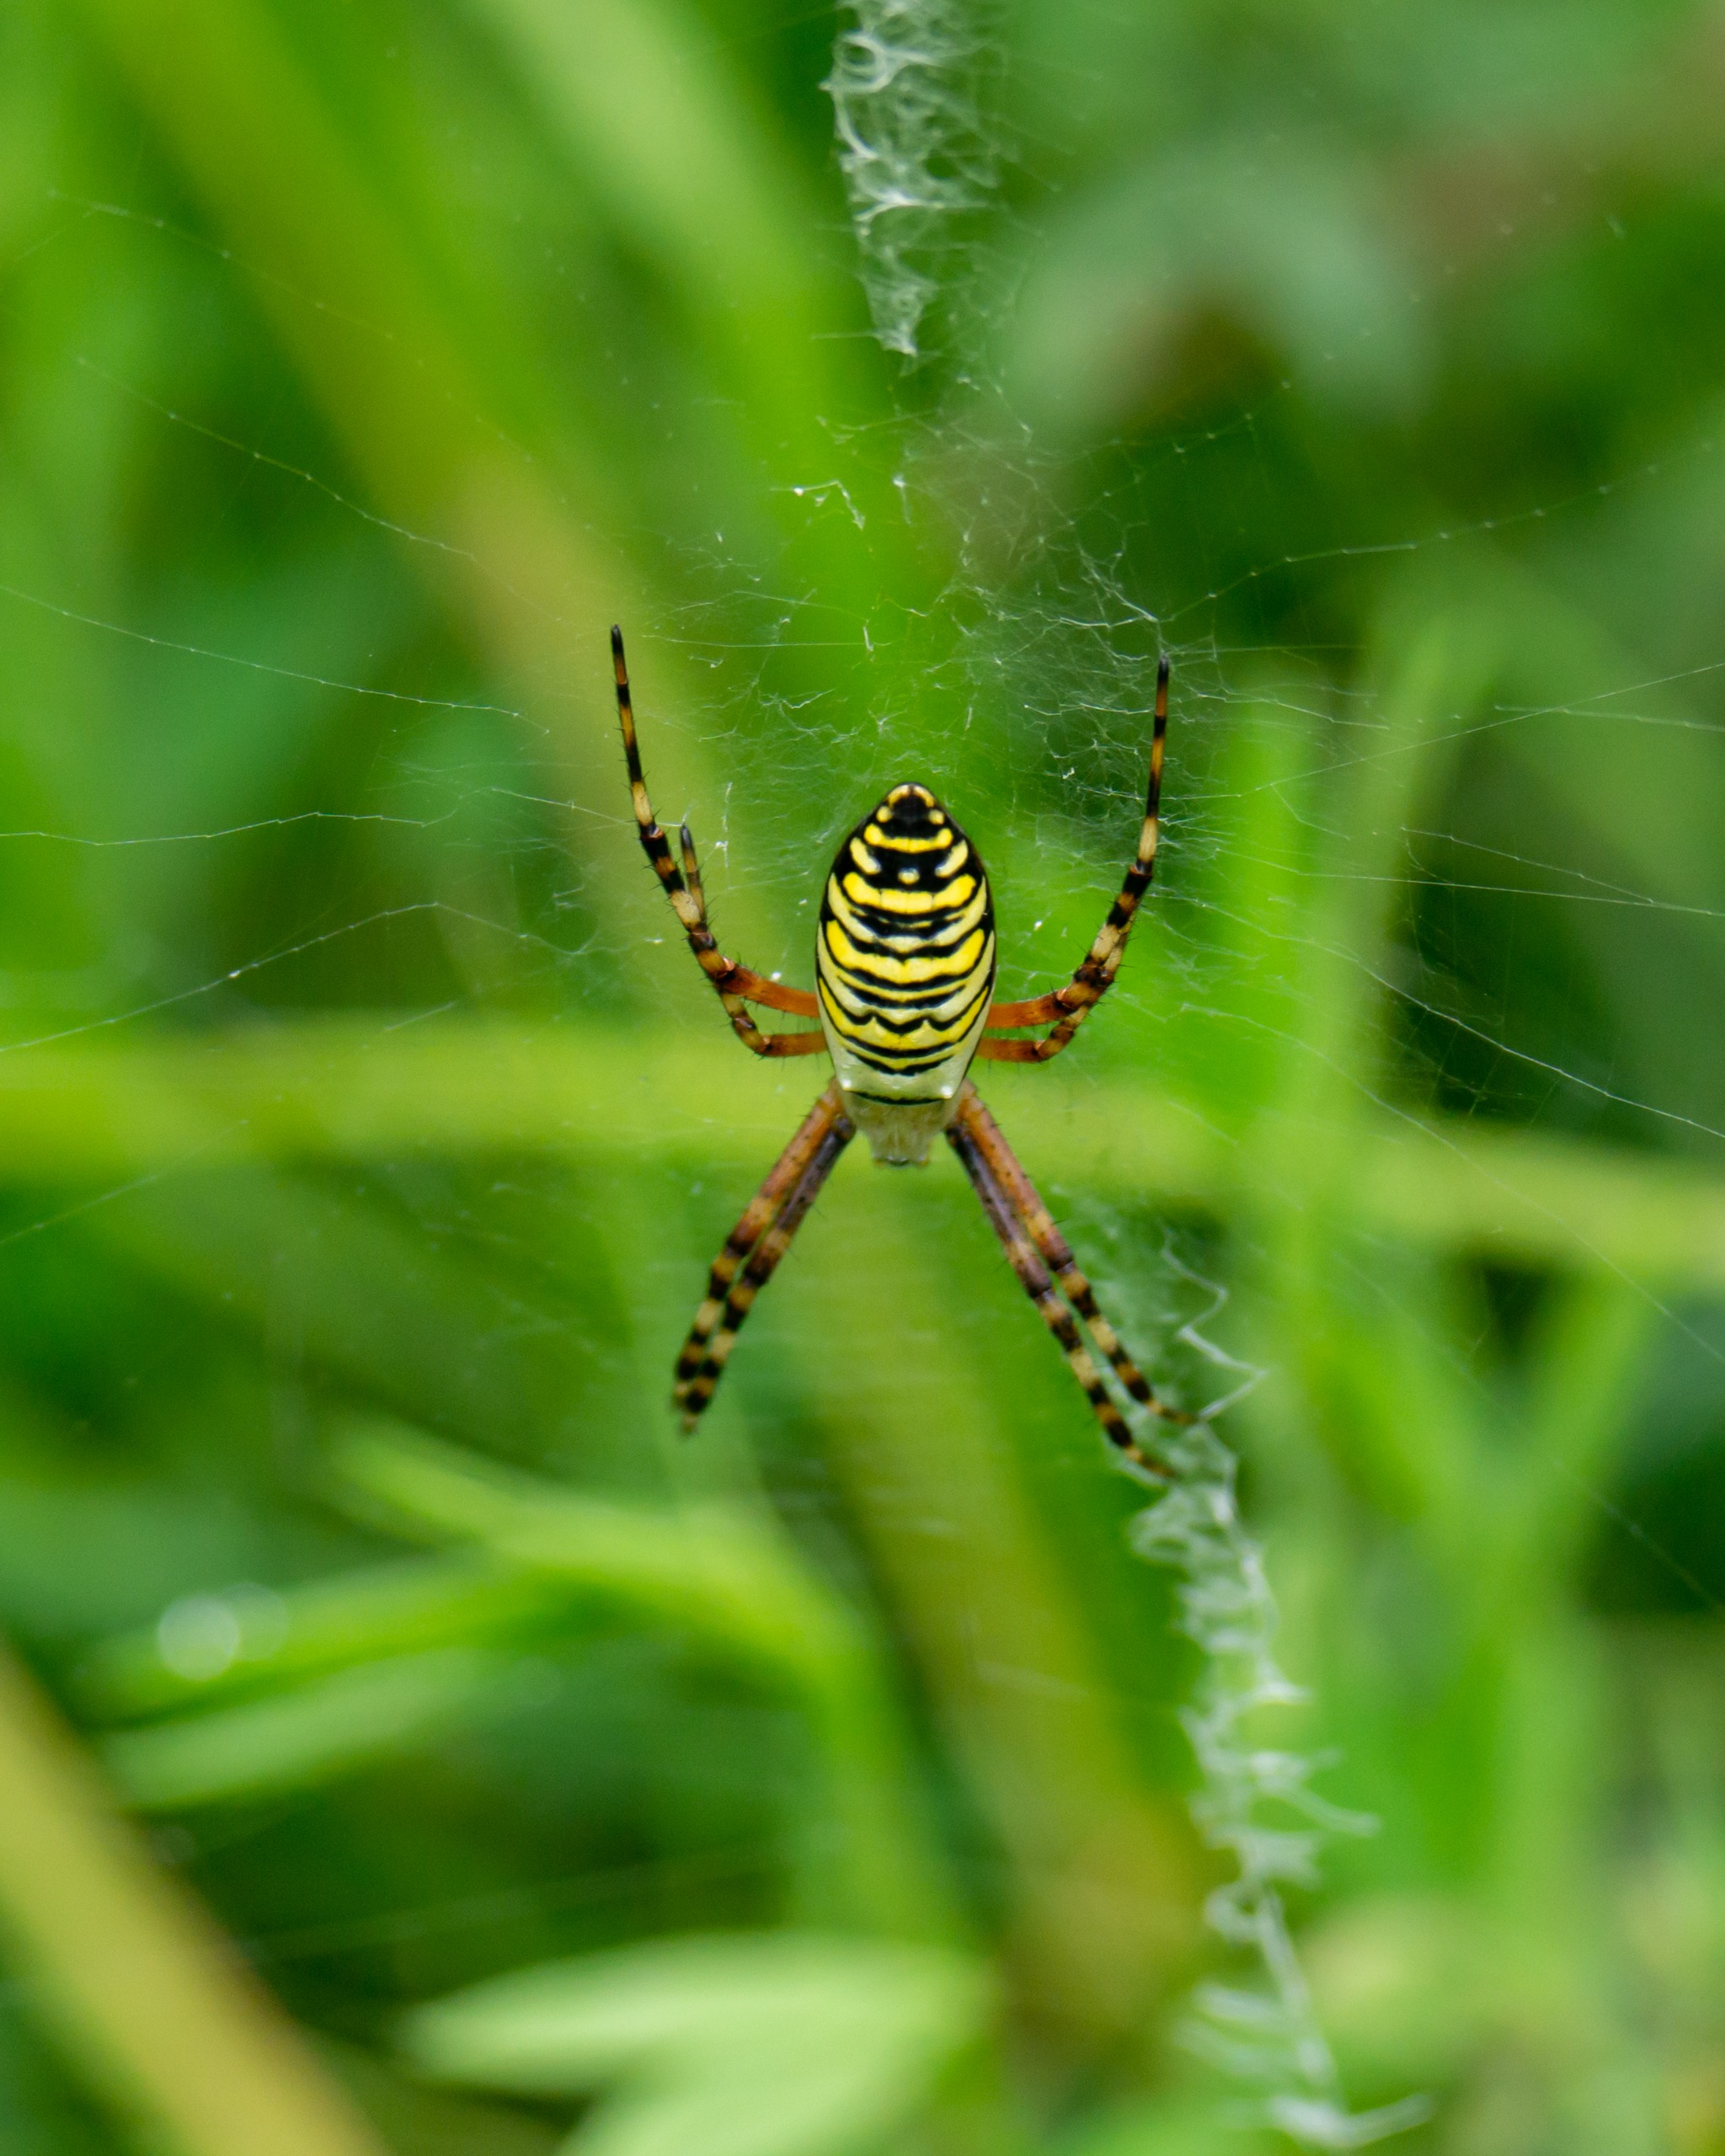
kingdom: Animalia
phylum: Arthropoda
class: Arachnida
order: Araneae
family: Araneidae
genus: Argiope
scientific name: Argiope bruennichi
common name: Hvepseedderkop
